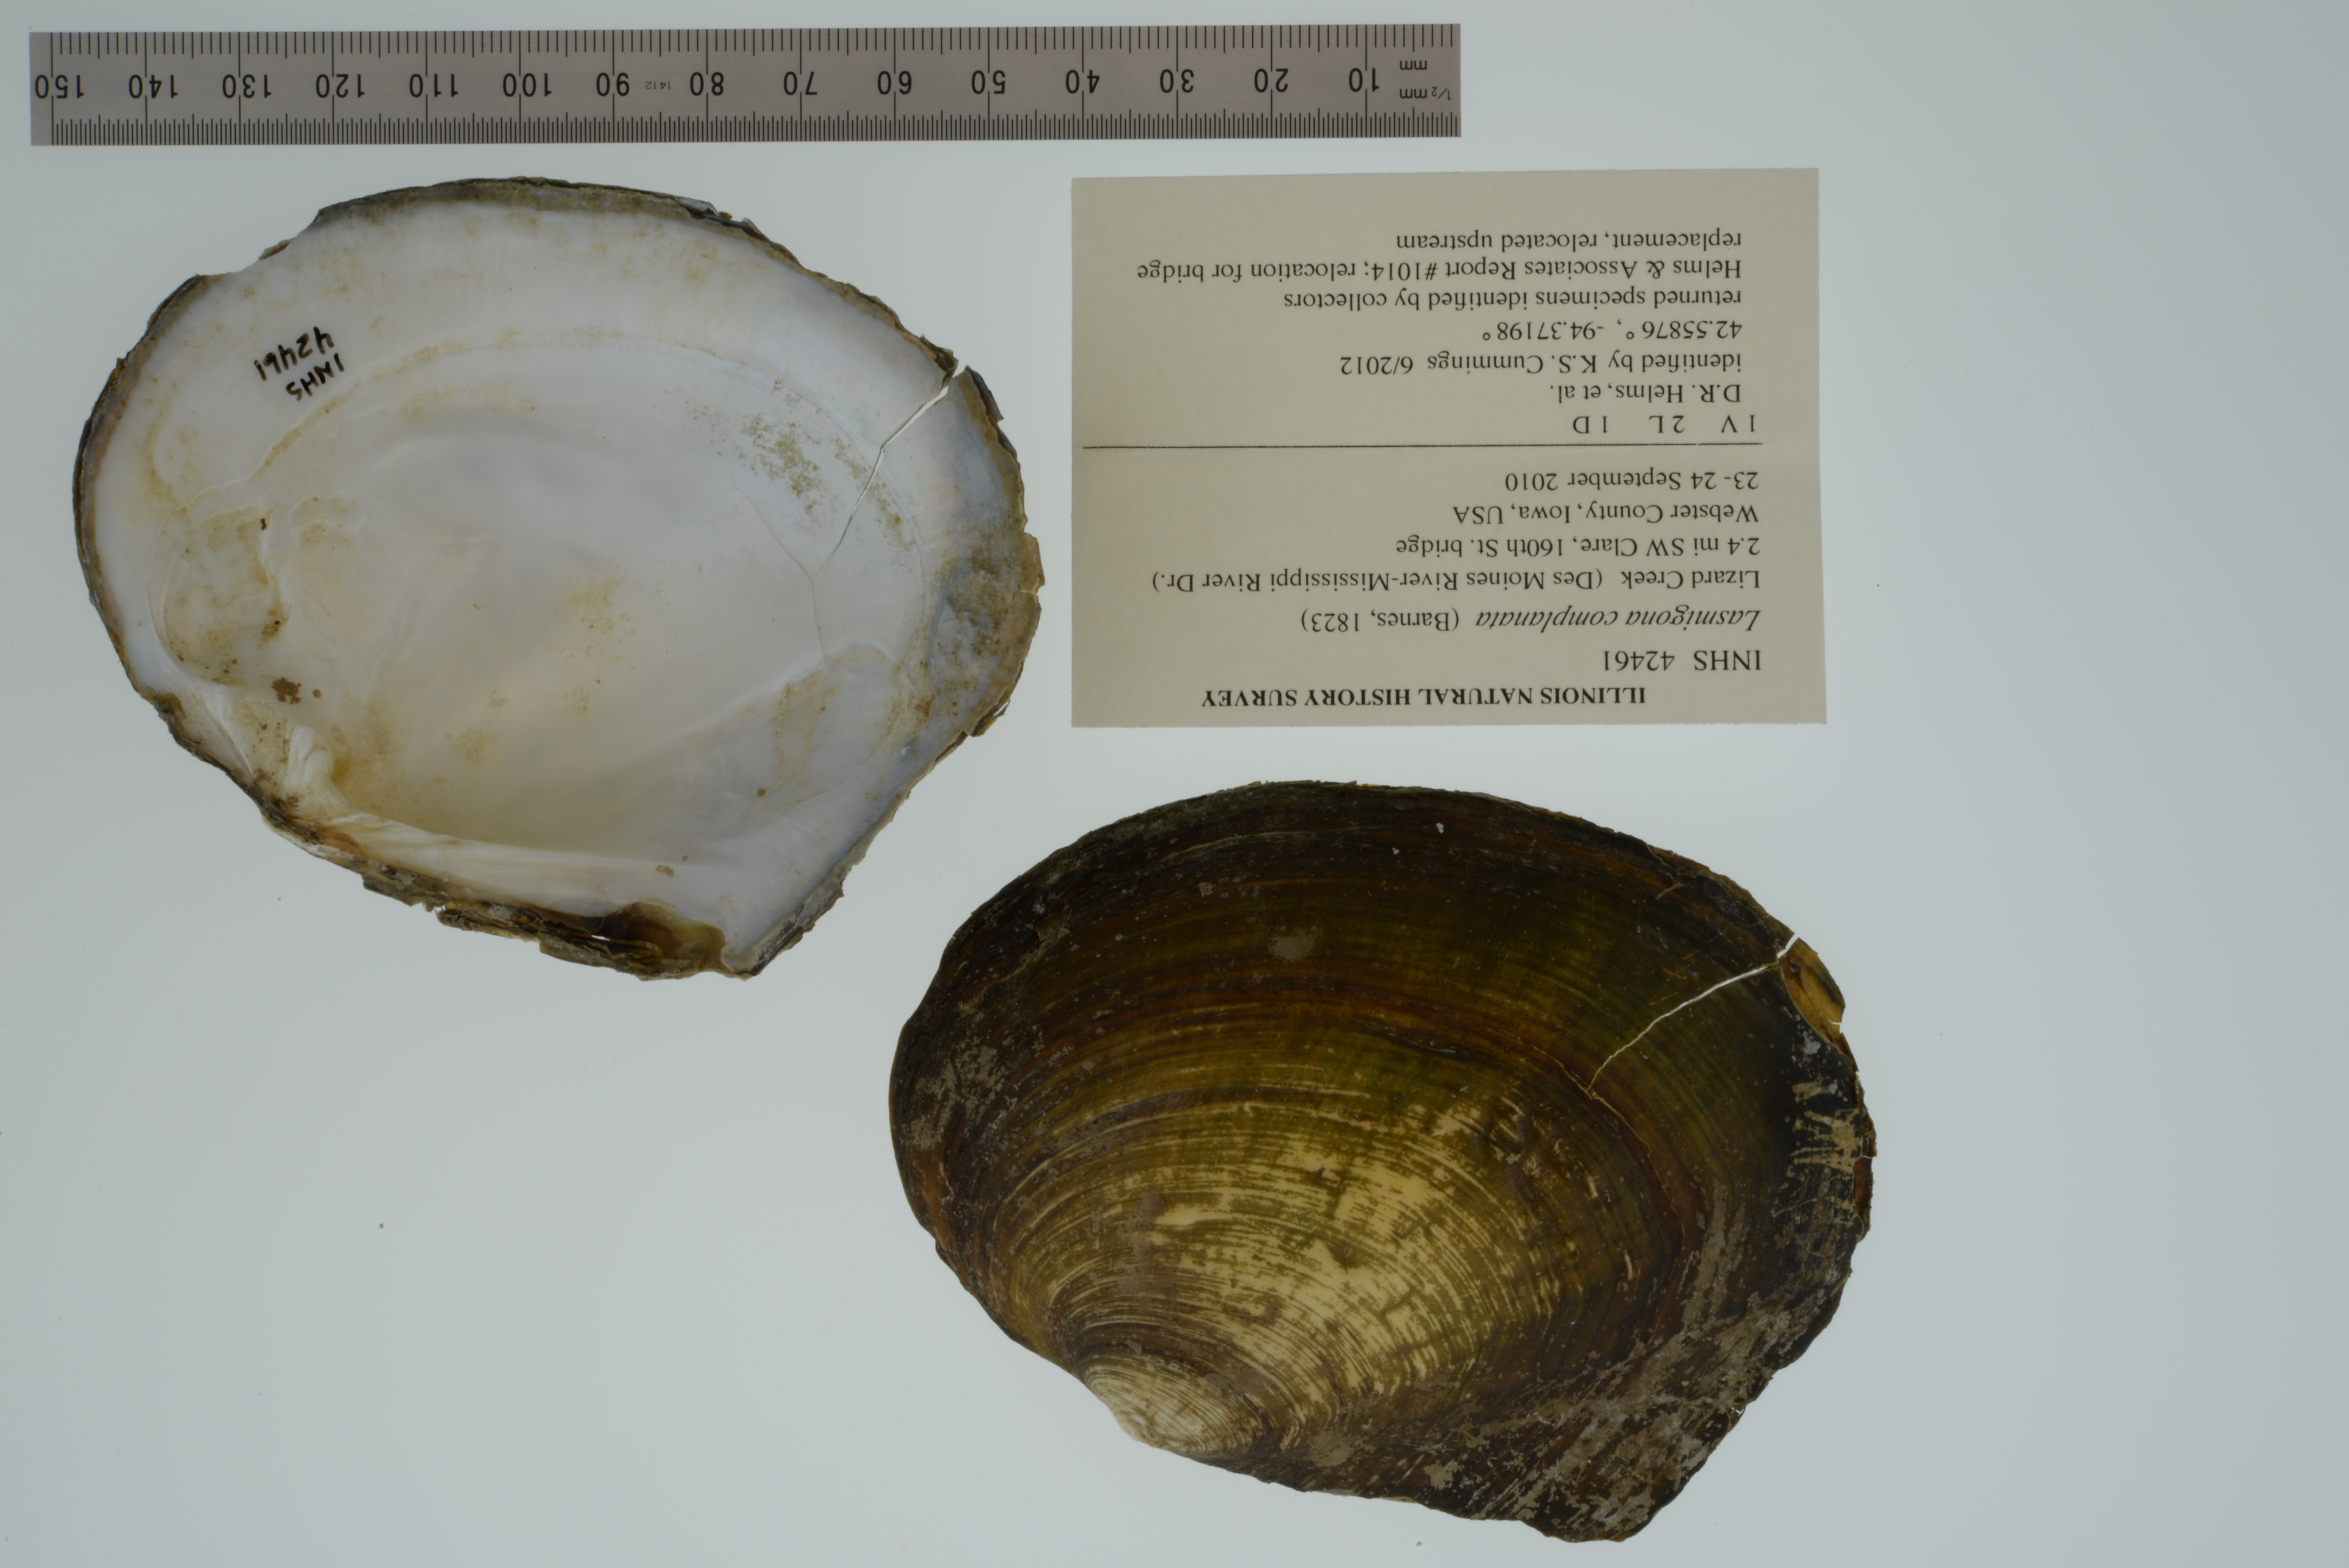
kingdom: Animalia
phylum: Mollusca
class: Bivalvia
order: Unionida
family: Unionidae
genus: Lasmigona
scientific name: Lasmigona complanata
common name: White heelsplitter
